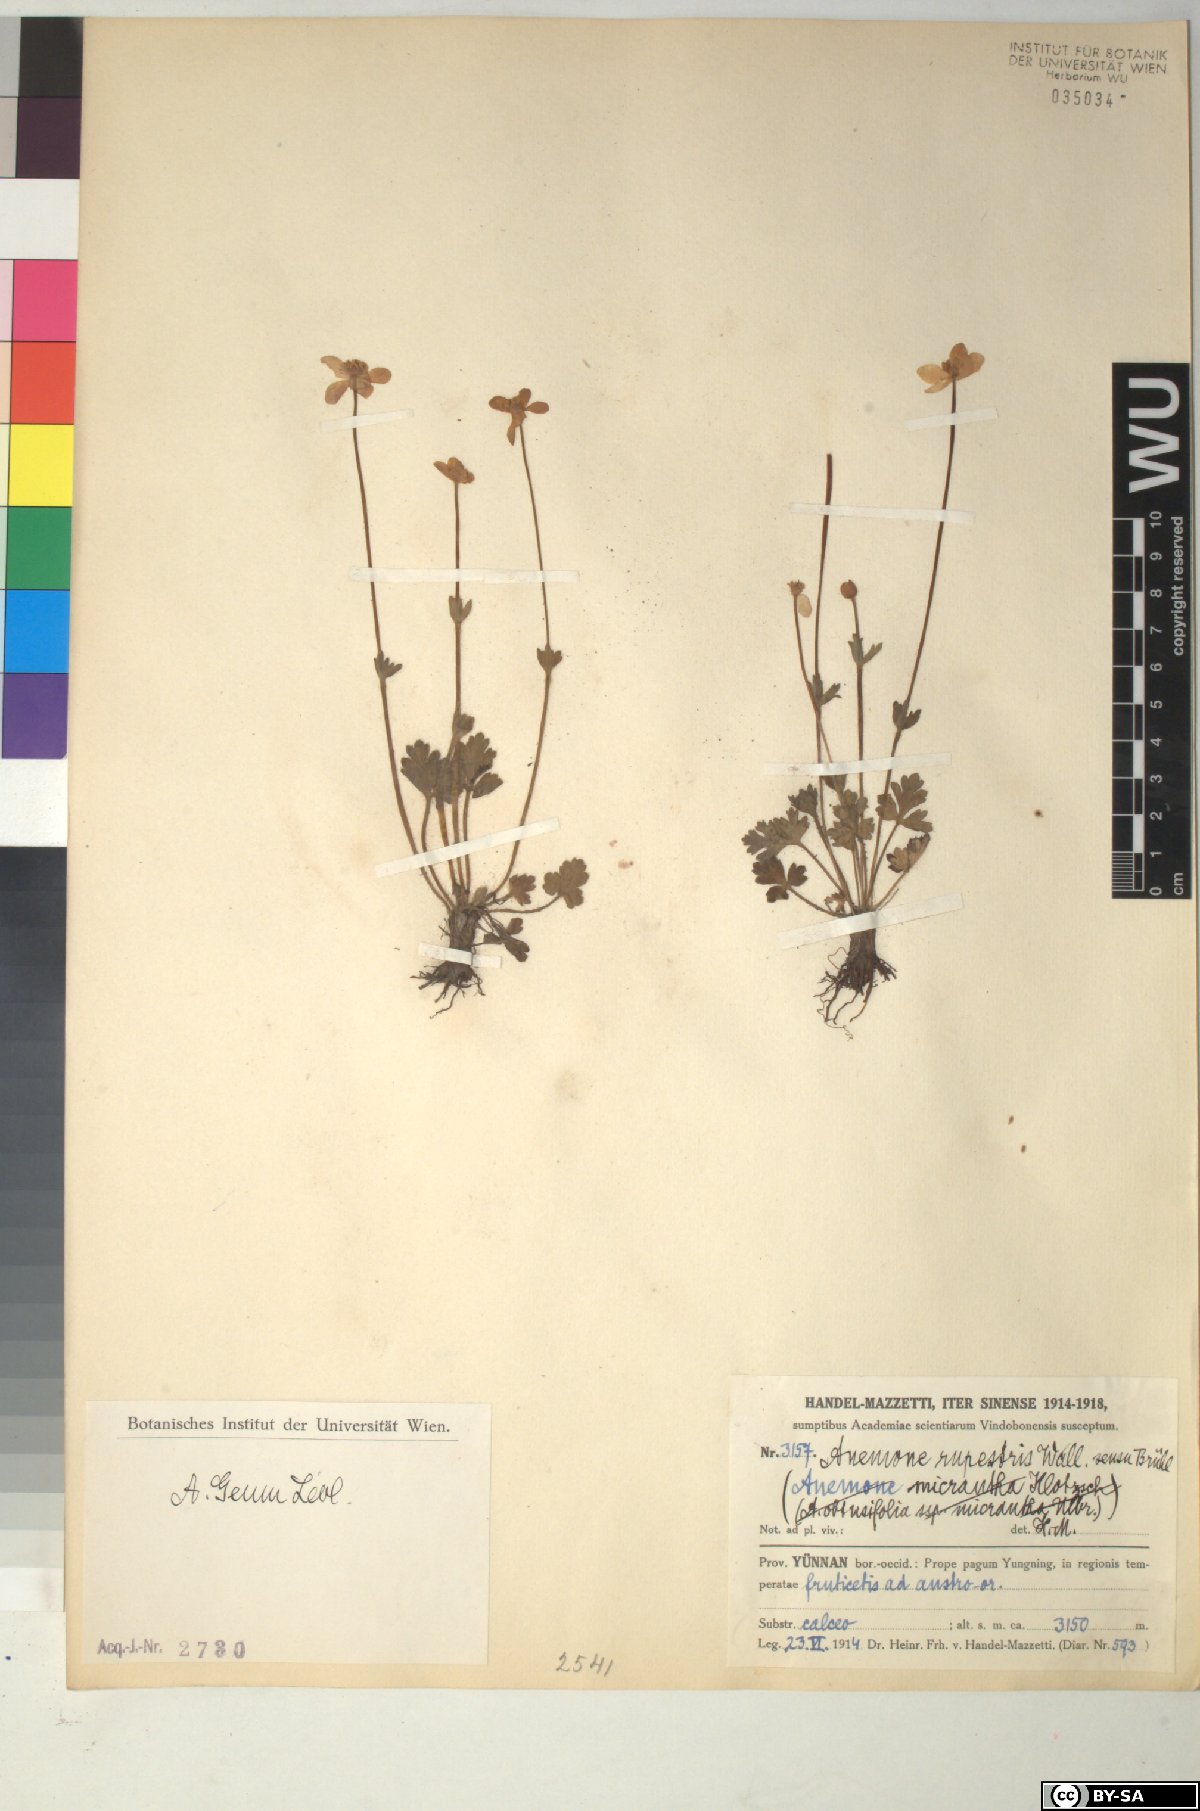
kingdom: Plantae
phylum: Tracheophyta
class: Magnoliopsida
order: Ranunculales
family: Ranunculaceae
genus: Anemonastrum
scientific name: Anemonastrum geum
